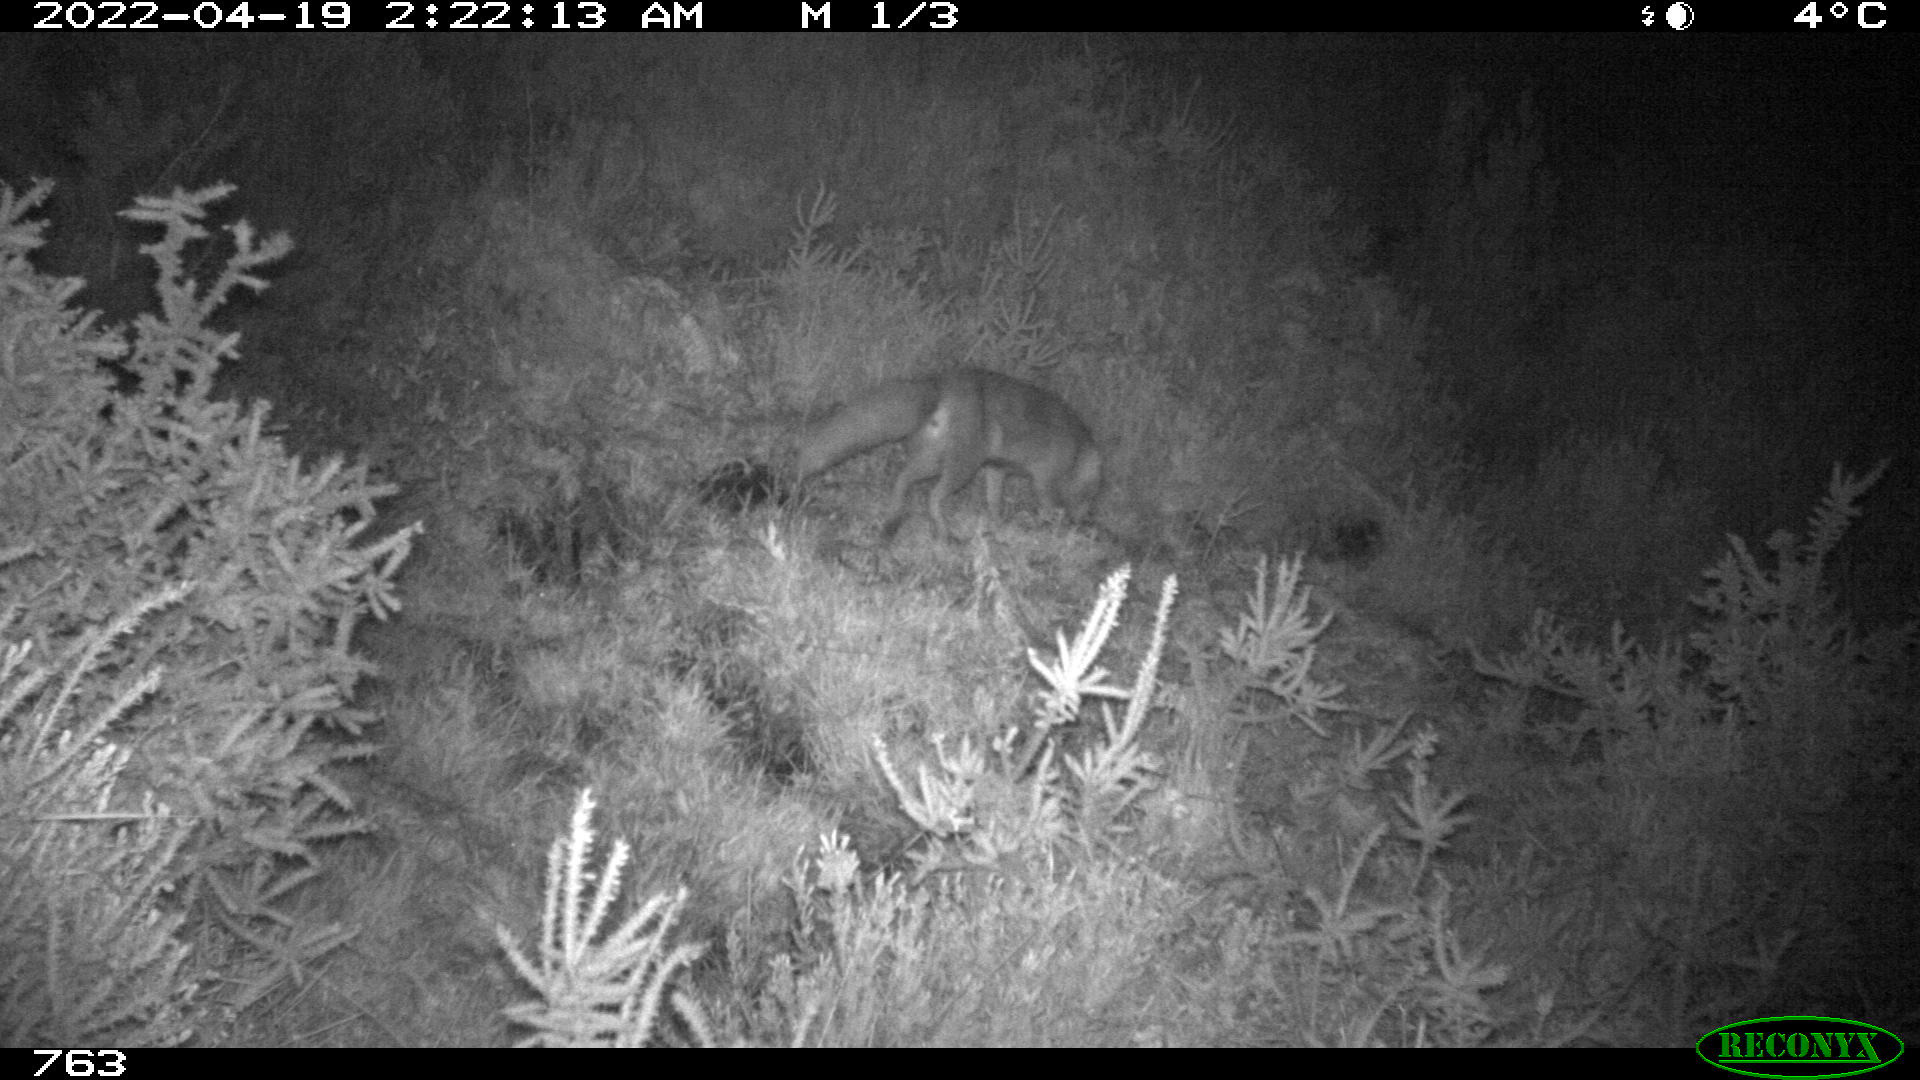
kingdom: Animalia
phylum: Chordata
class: Mammalia
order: Carnivora
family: Canidae
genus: Vulpes
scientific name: Vulpes vulpes
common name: Red fox
